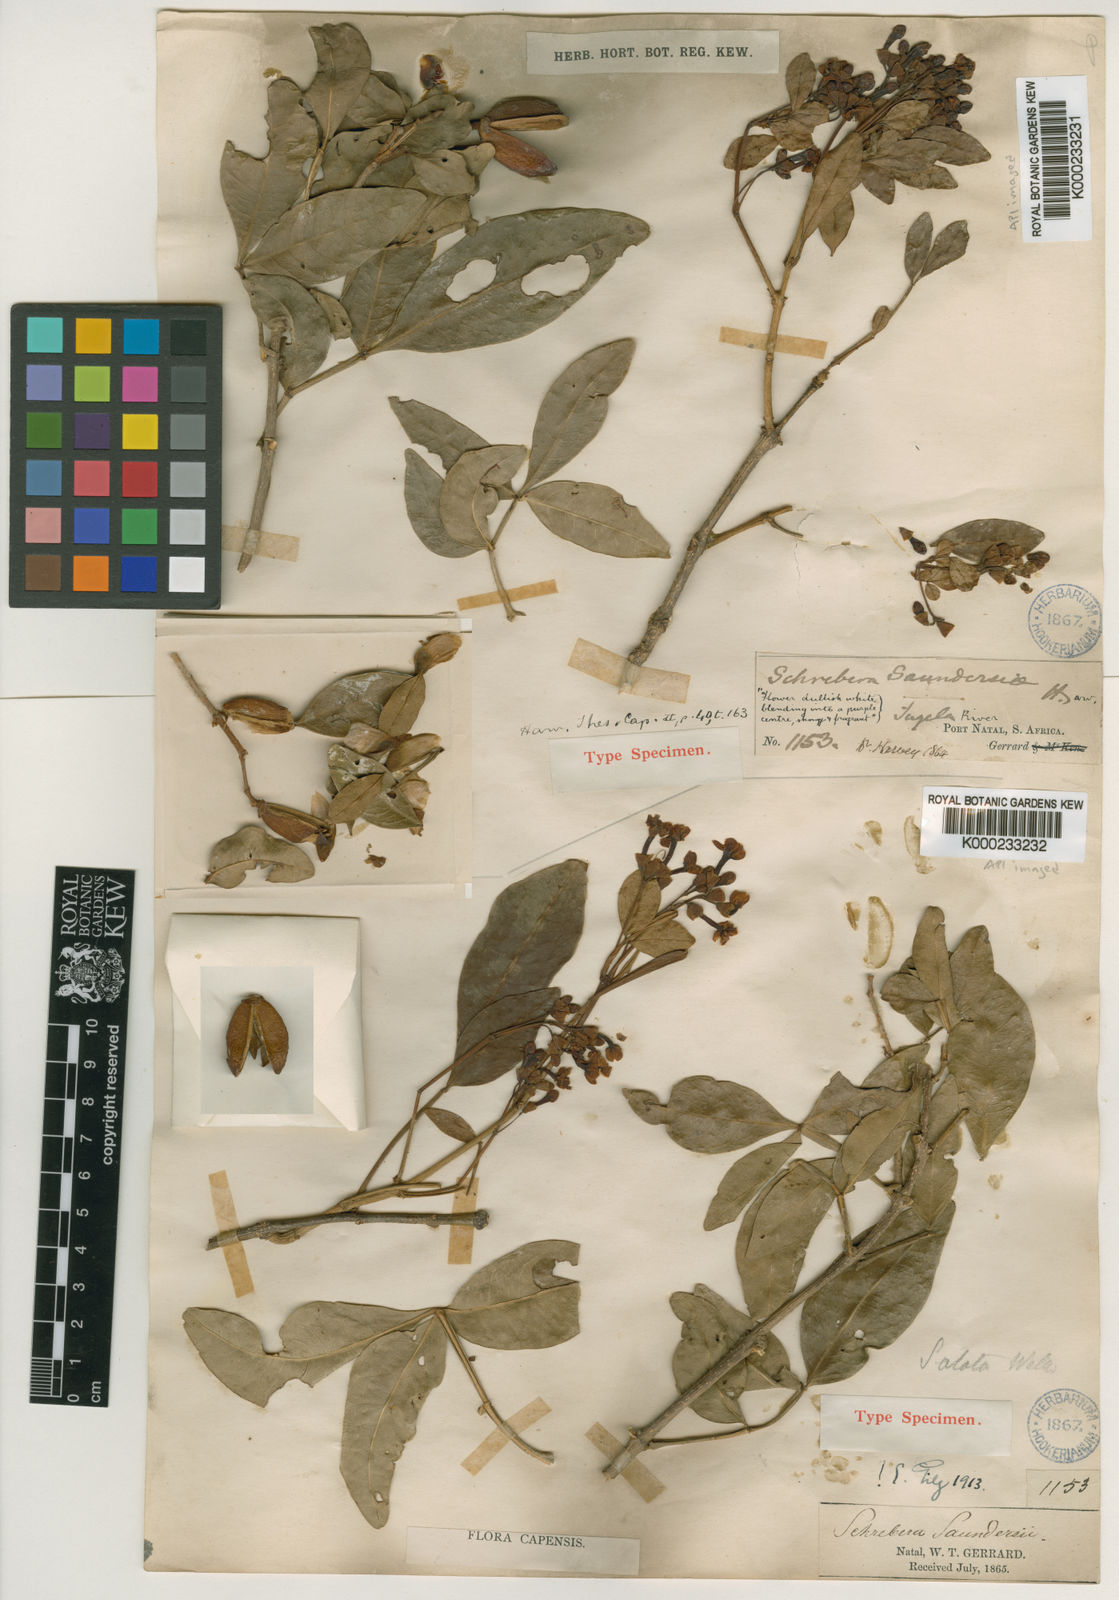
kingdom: Plantae
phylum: Tracheophyta
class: Magnoliopsida
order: Lamiales
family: Oleaceae
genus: Schrebera
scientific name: Schrebera alata
